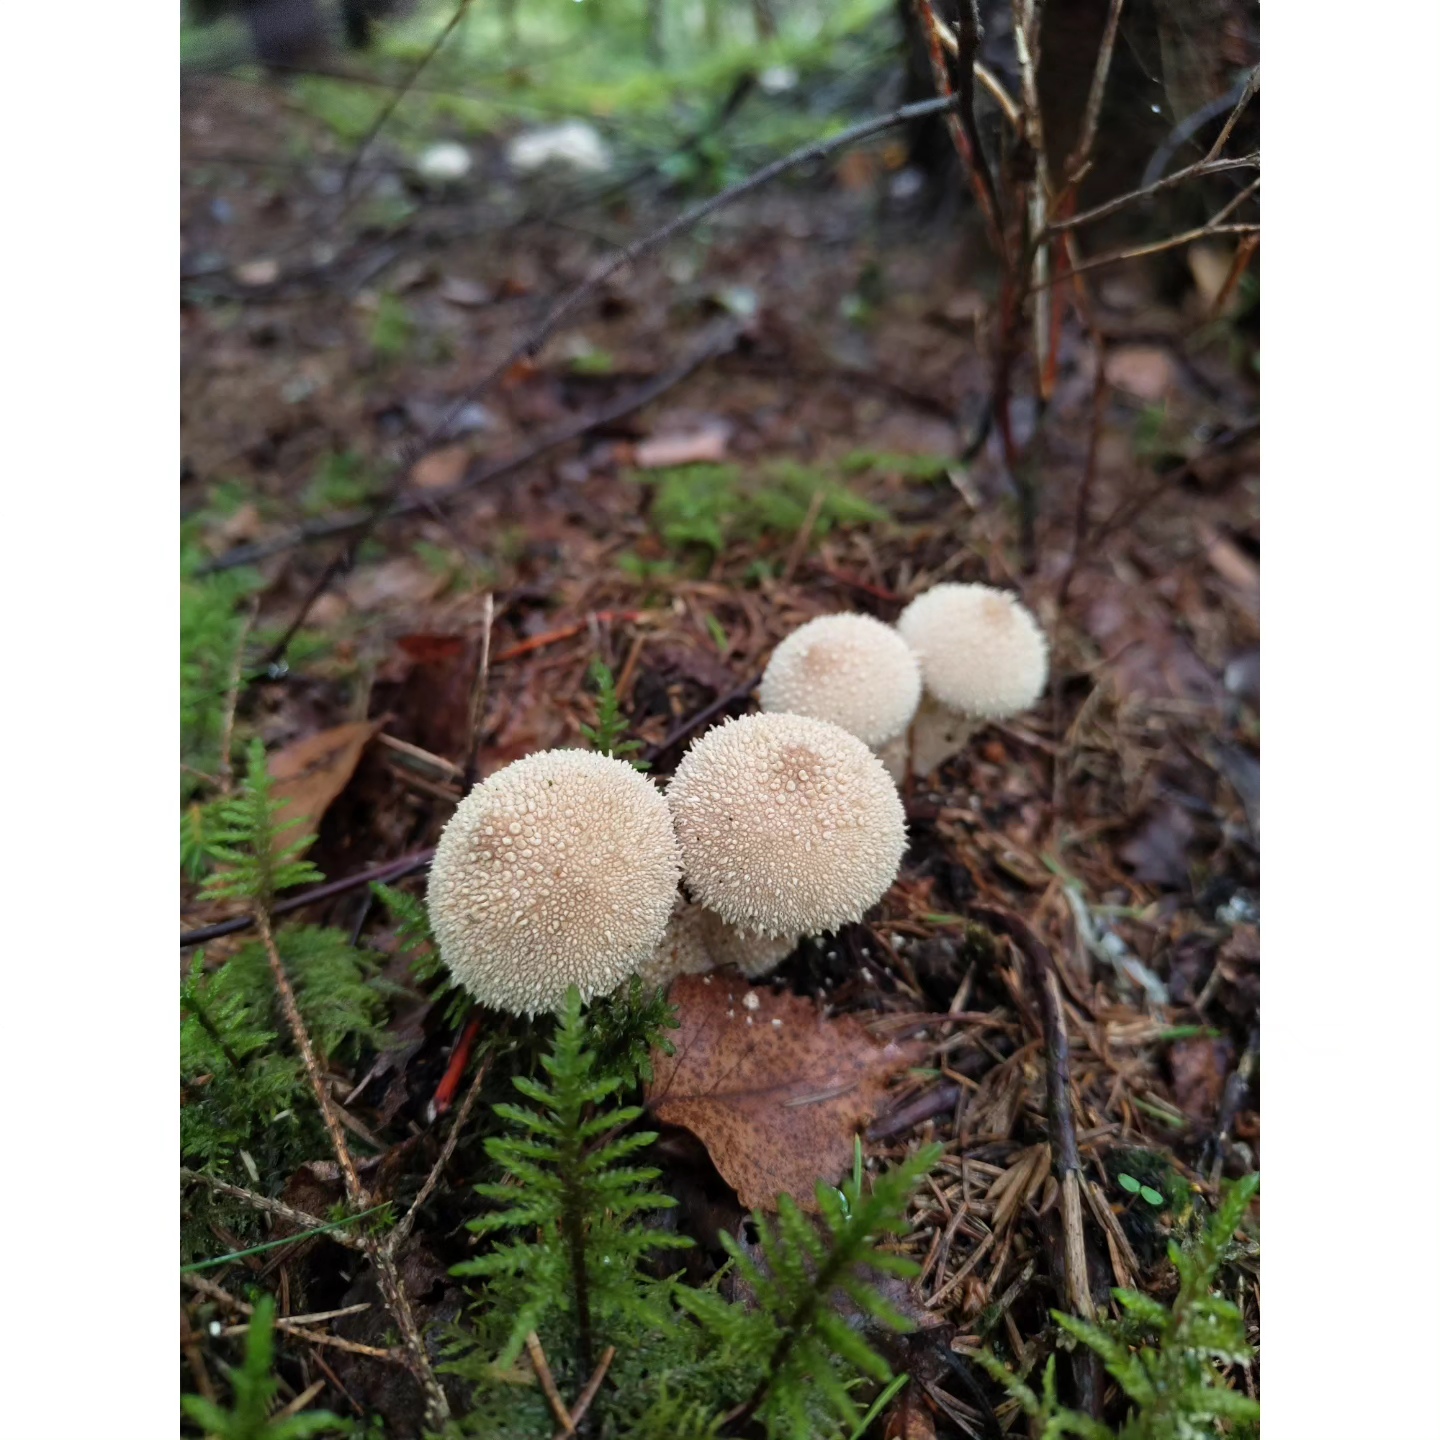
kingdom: Fungi
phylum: Basidiomycota
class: Agaricomycetes
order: Agaricales
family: Lycoperdaceae
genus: Lycoperdon
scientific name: Lycoperdon perlatum
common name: krystal-støvbold
